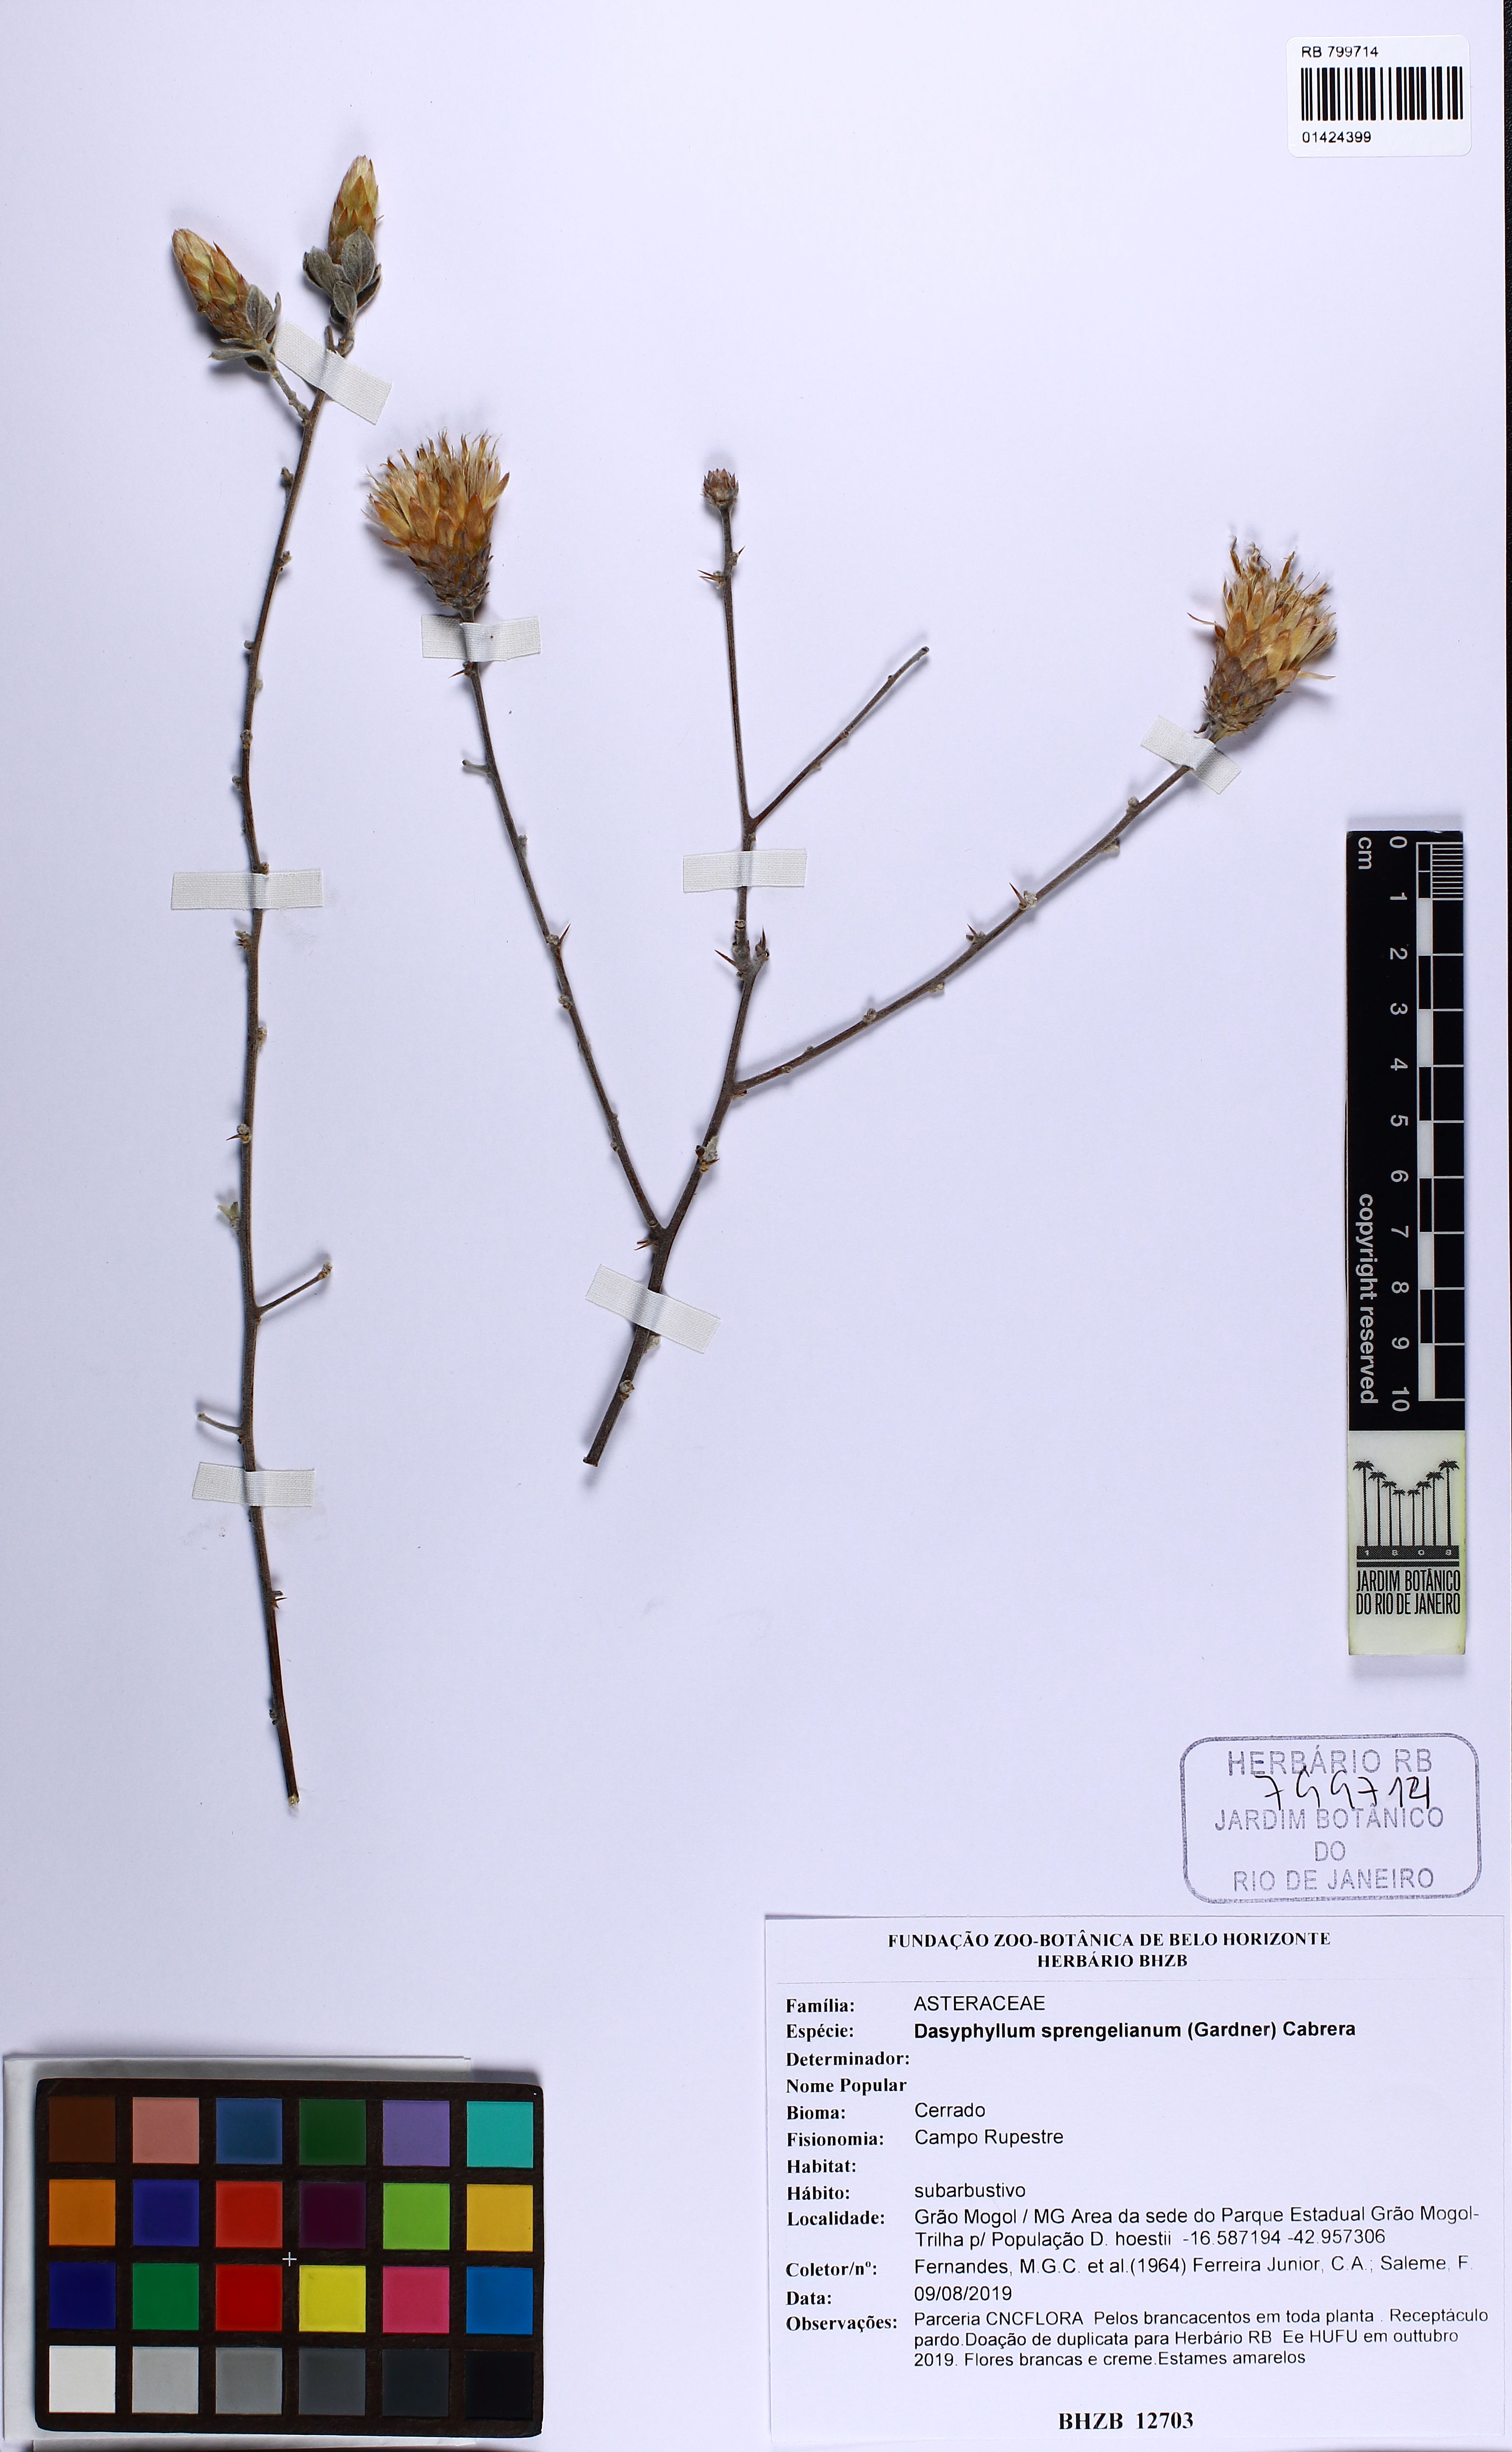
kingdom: Plantae
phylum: Tracheophyta
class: Magnoliopsida
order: Asterales
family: Asteraceae
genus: Dasyphyllum
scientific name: Dasyphyllum sprengelianum
